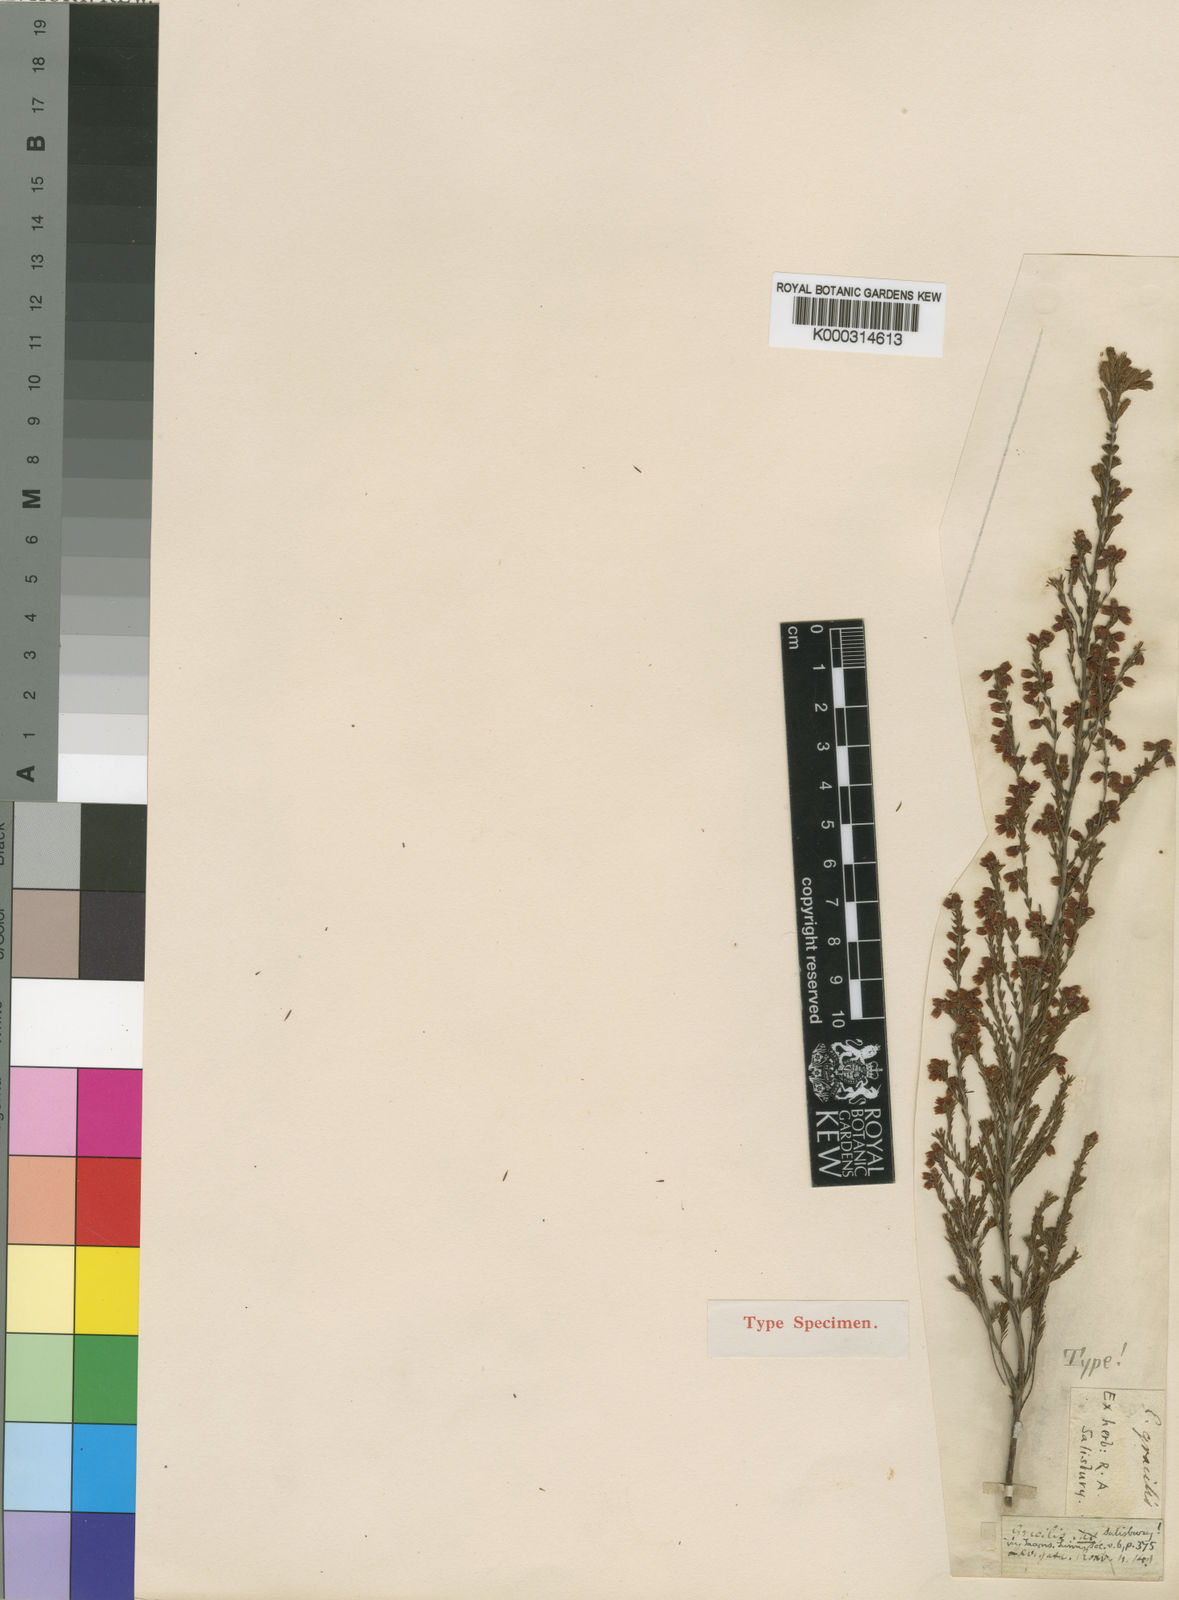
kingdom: Plantae
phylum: Tracheophyta
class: Magnoliopsida
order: Ericales
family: Ericaceae
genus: Erica
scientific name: Erica gracilis
